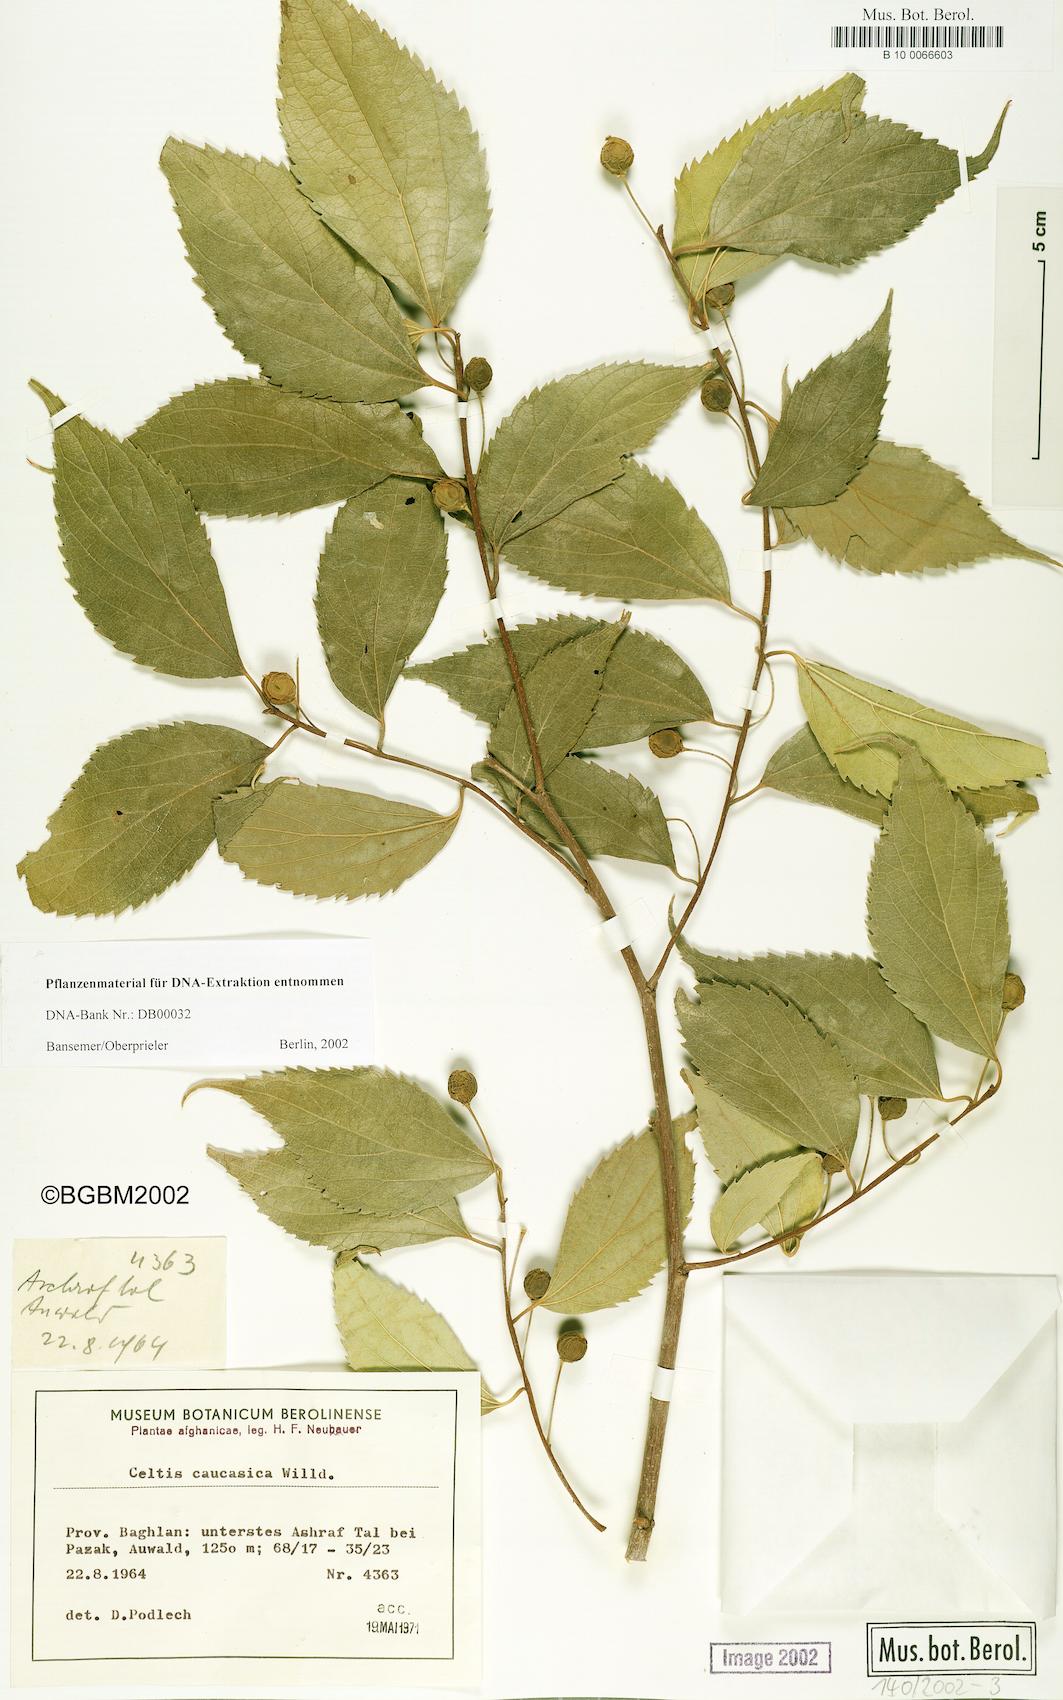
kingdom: Plantae
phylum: Tracheophyta
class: Magnoliopsida
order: Rosales
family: Cannabaceae
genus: Celtis
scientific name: Celtis caucasica
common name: Caucasian hackberry
